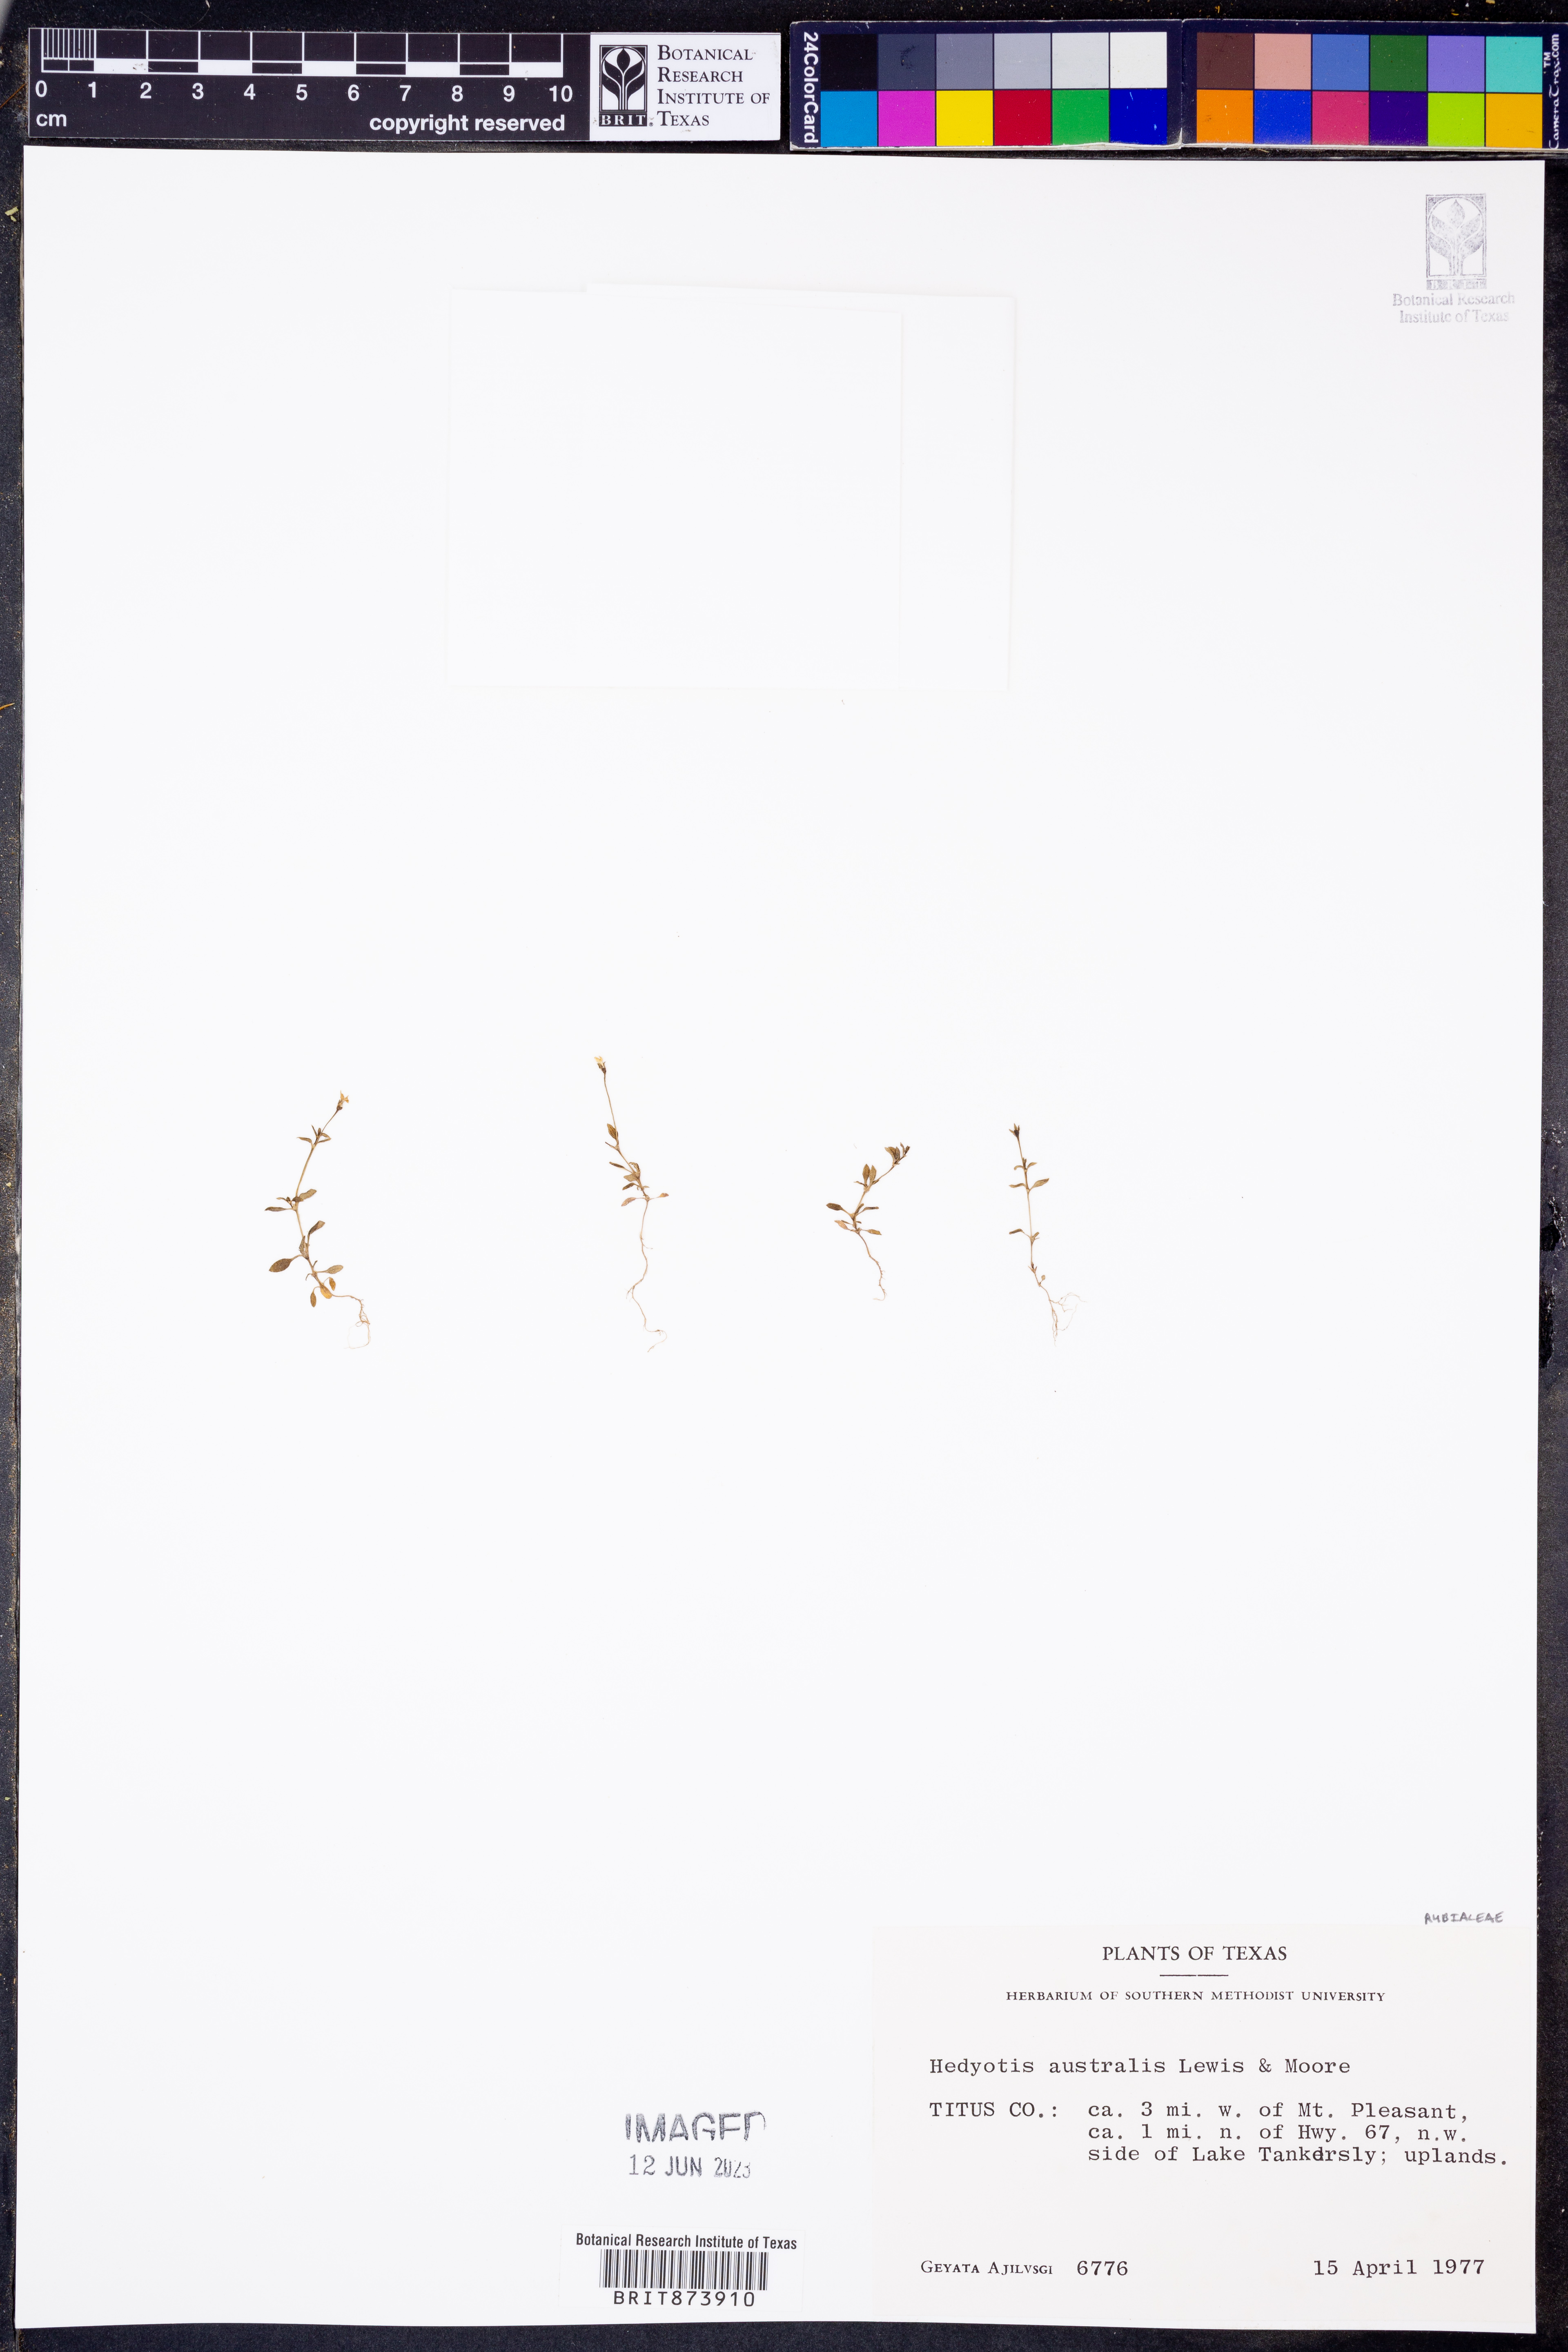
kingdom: Plantae
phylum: Tracheophyta
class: Magnoliopsida
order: Gentianales
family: Rubiaceae
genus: Houstonia
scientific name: Houstonia micrantha
